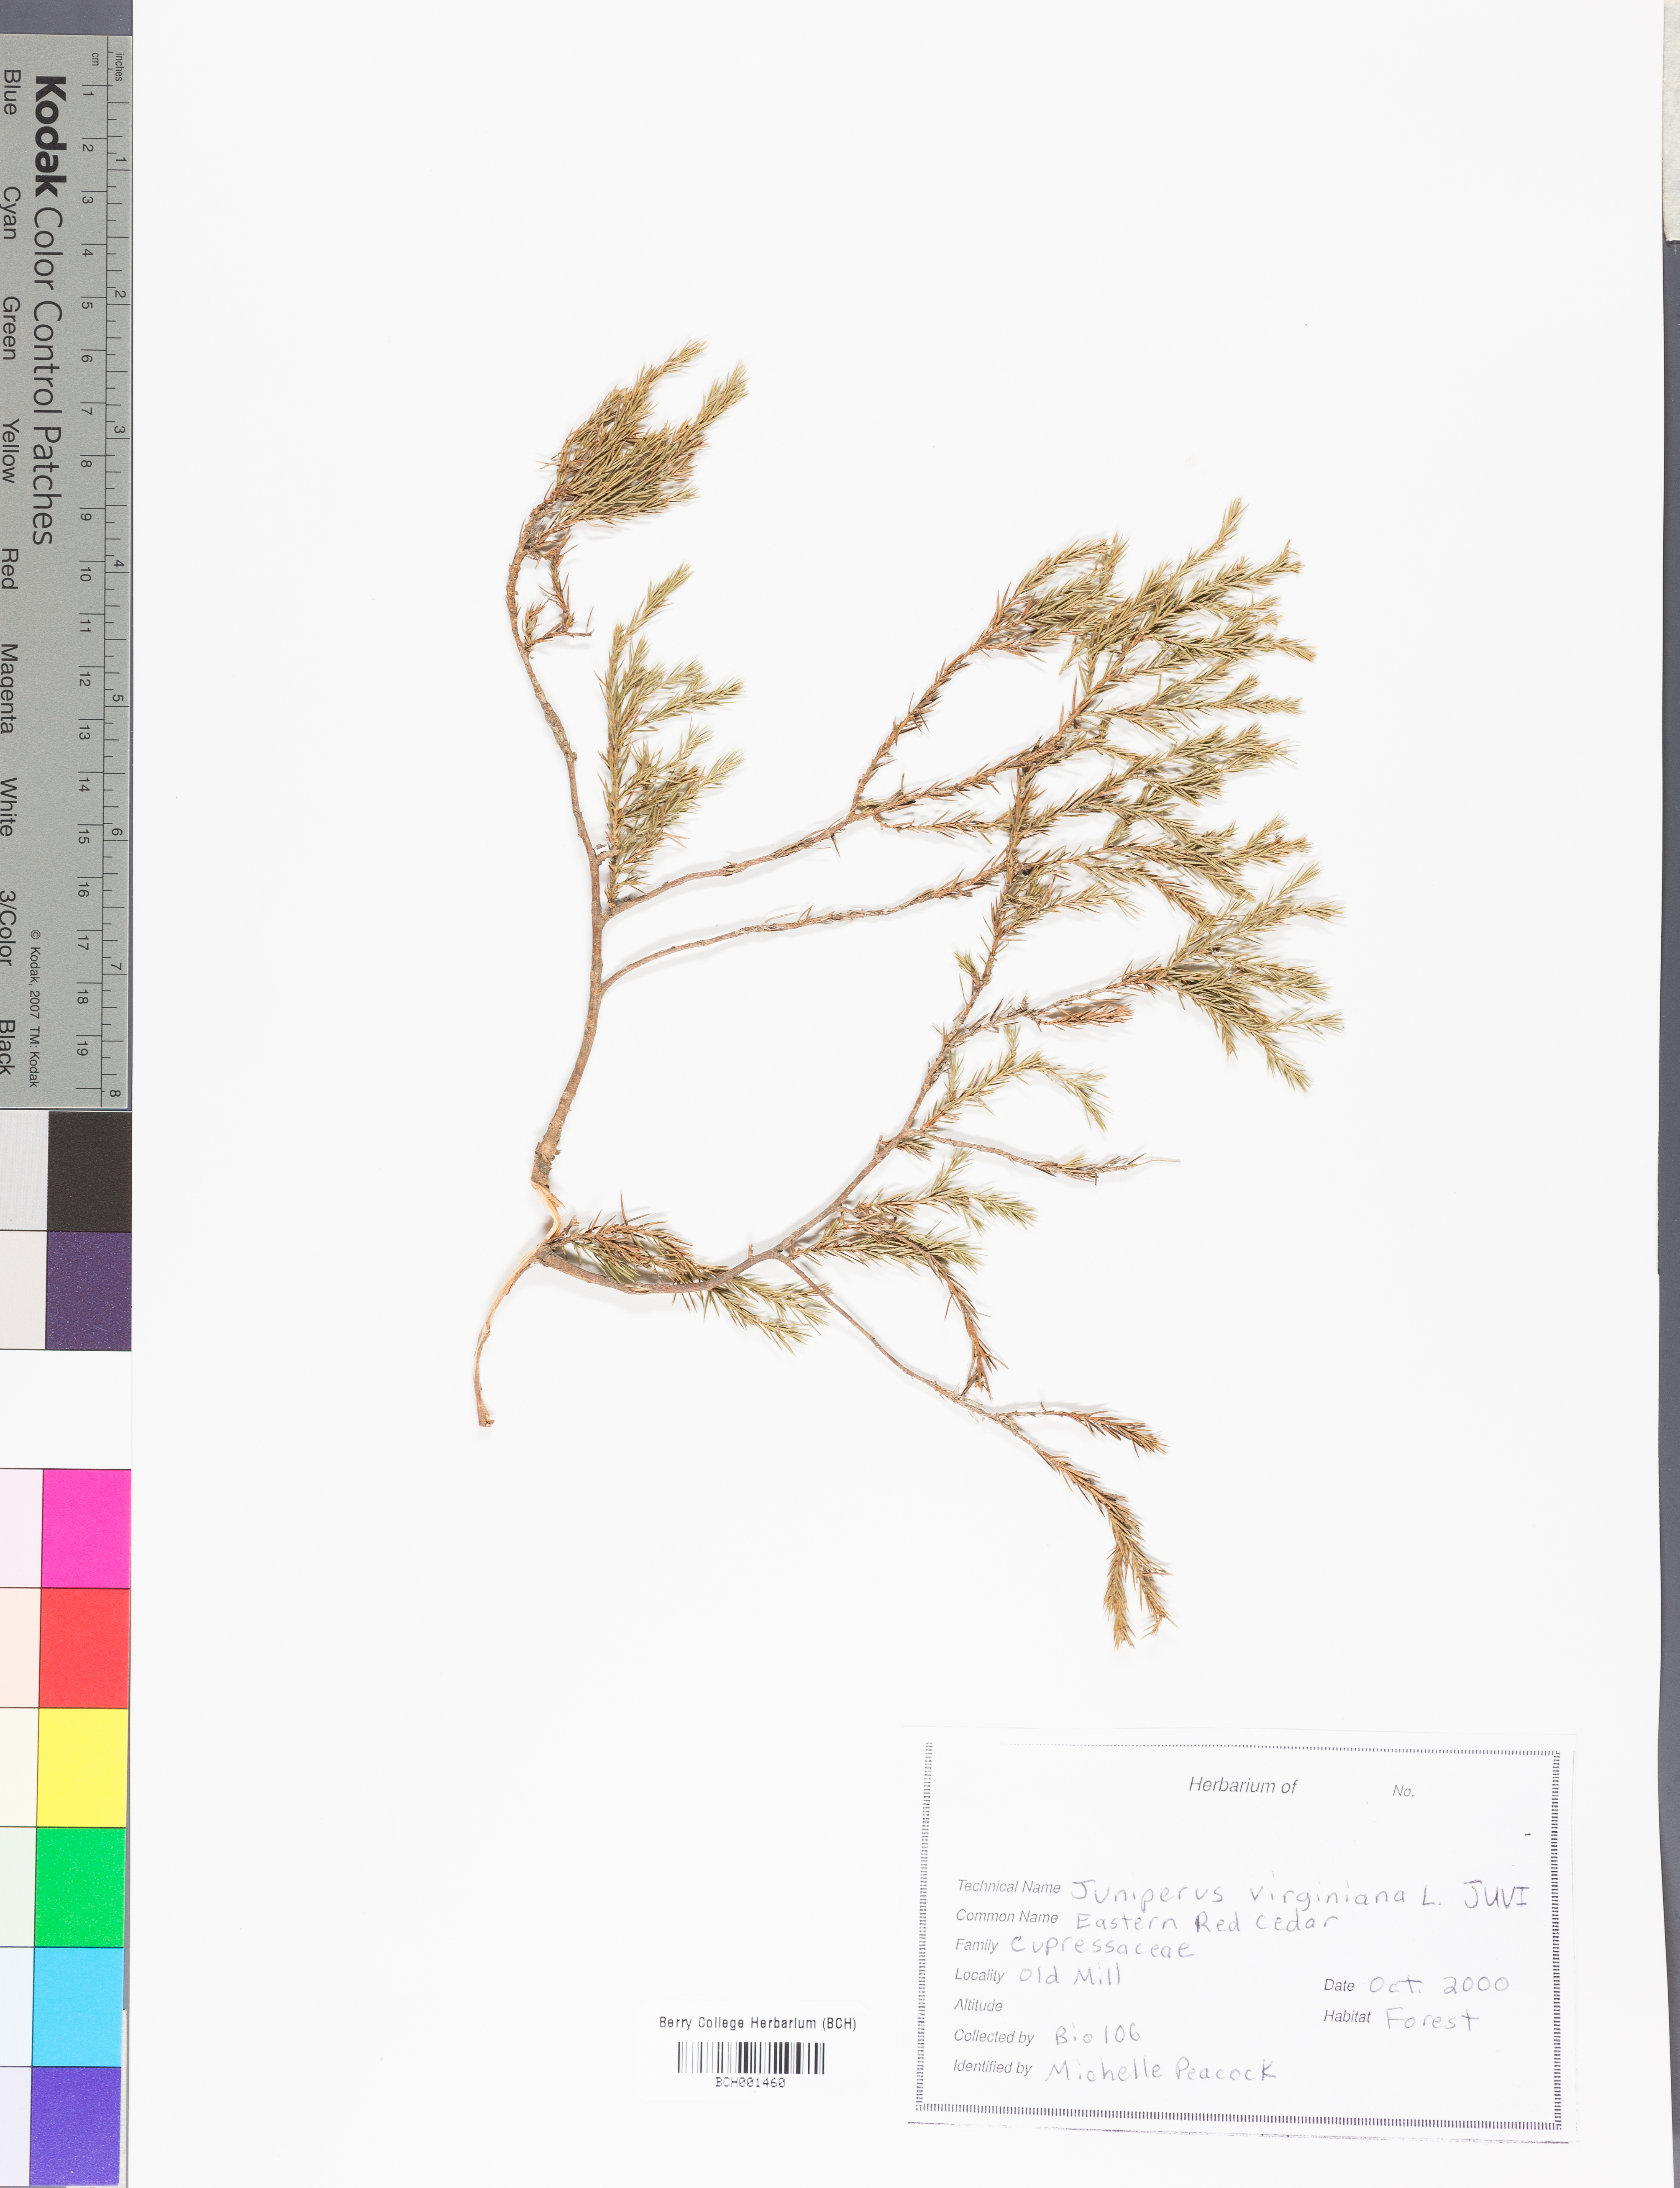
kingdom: Plantae
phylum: Tracheophyta
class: Pinopsida
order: Pinales
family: Cupressaceae
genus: Juniperus
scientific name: Juniperus virginiana
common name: Red juniper
